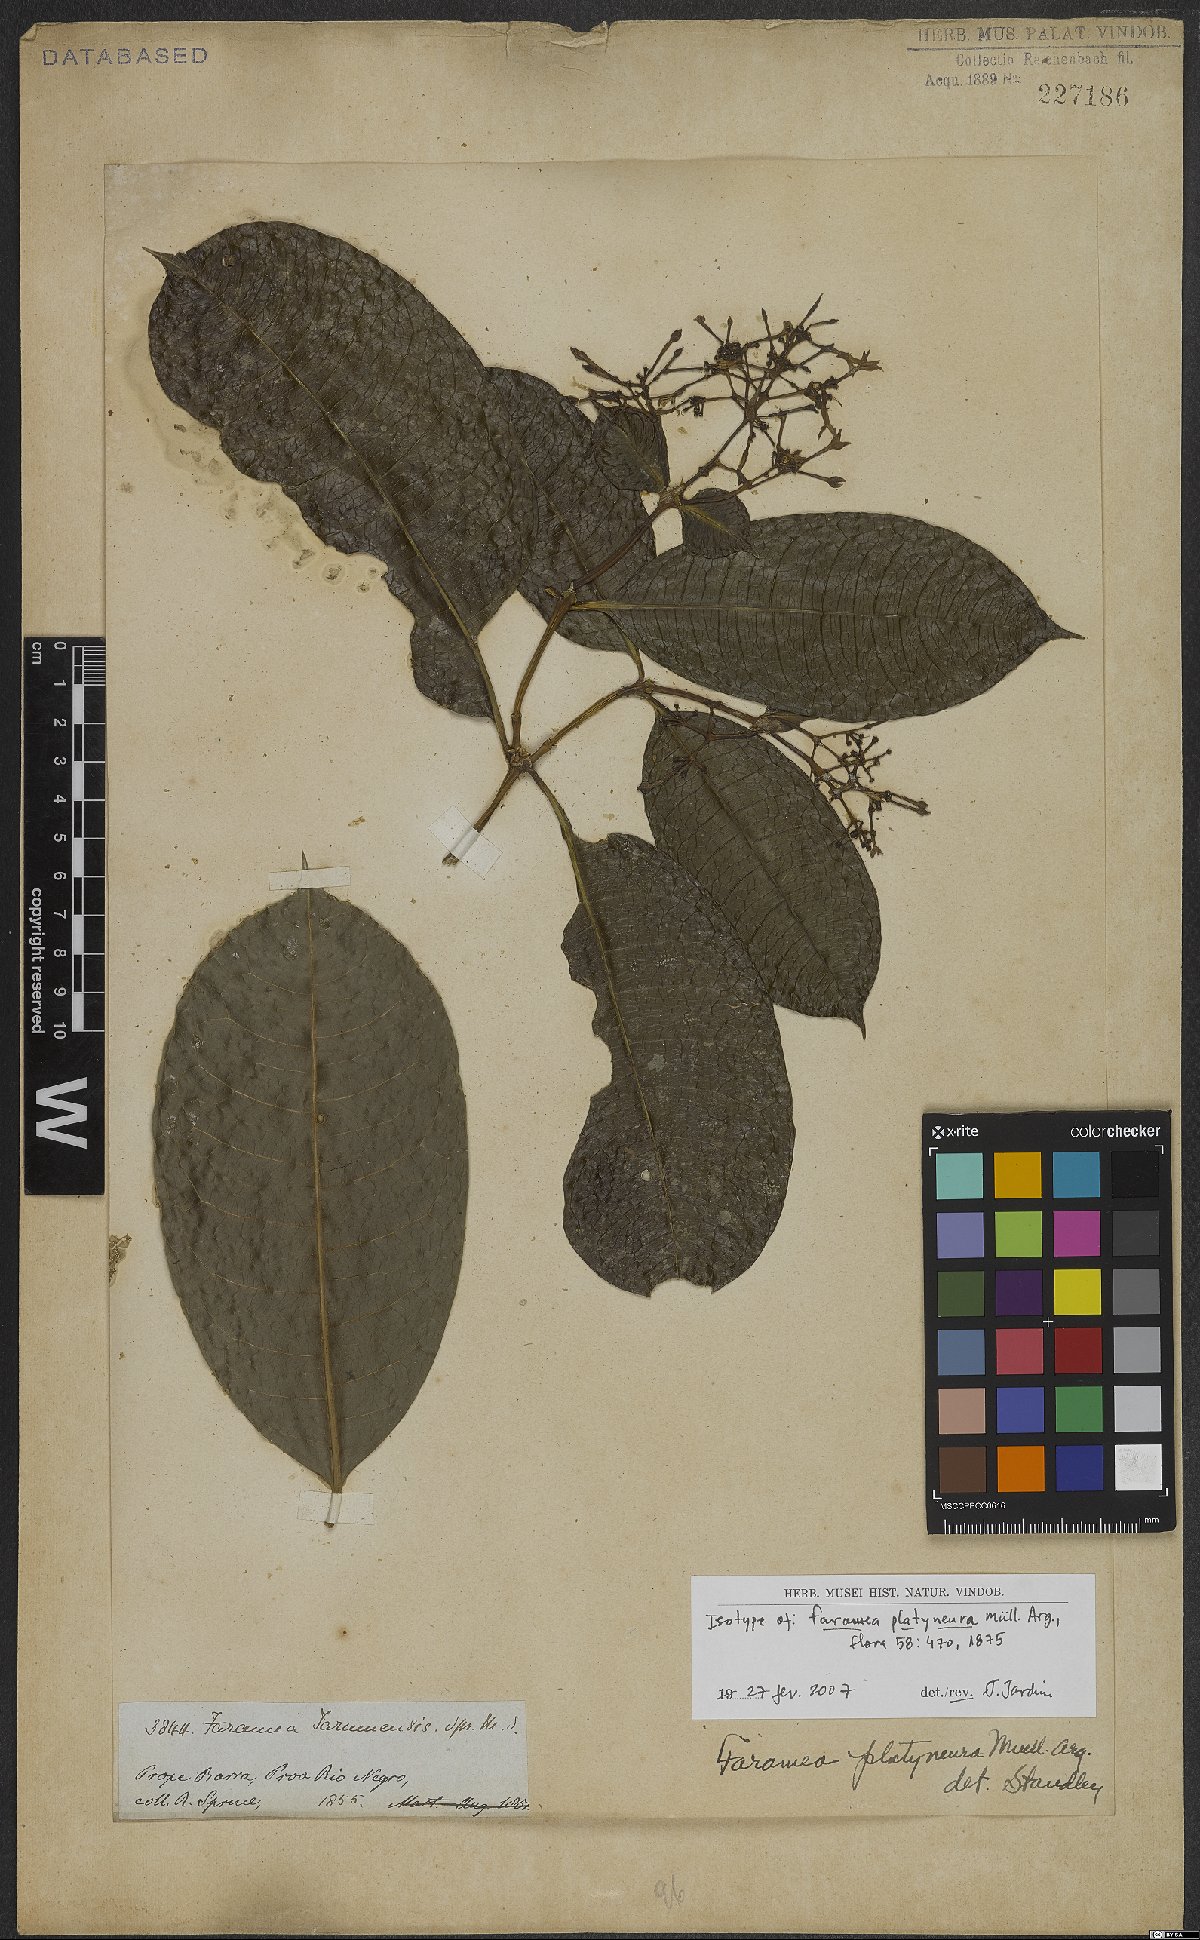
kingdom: Plantae
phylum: Tracheophyta
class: Magnoliopsida
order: Gentianales
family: Rubiaceae
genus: Faramea
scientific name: Faramea platyneura
